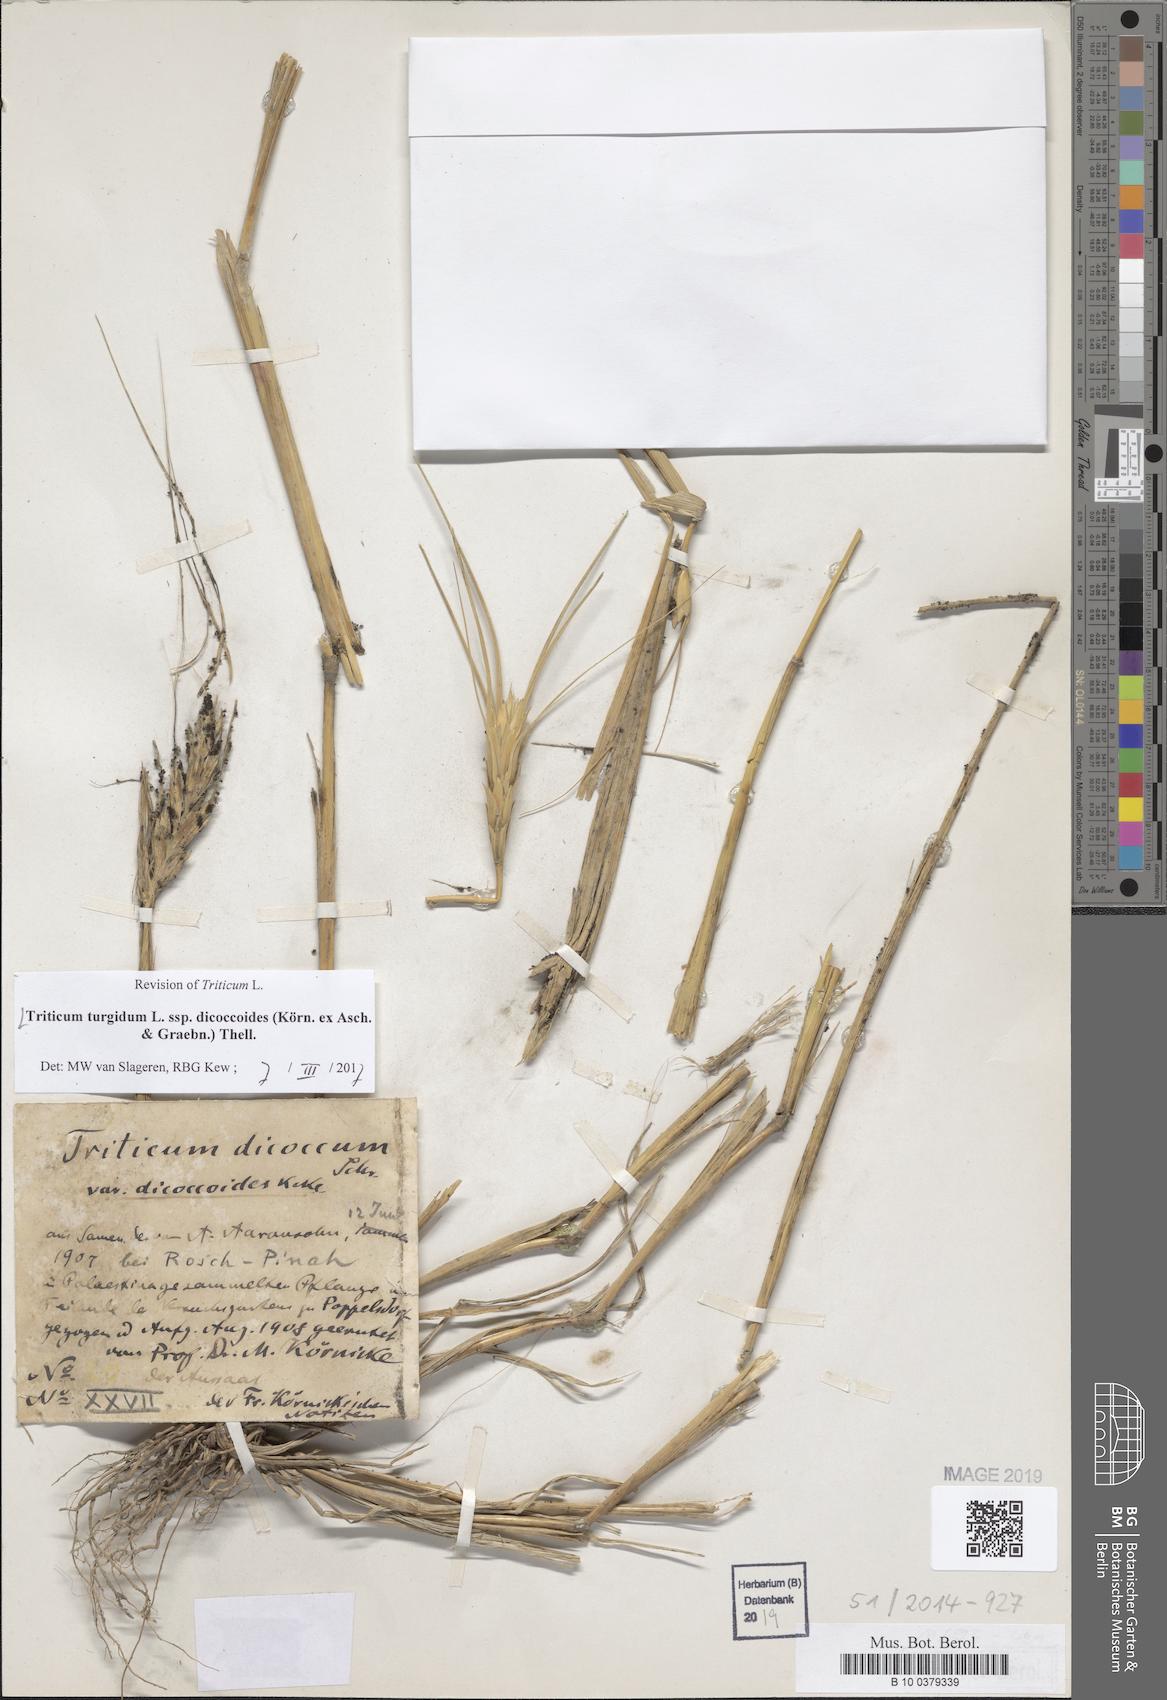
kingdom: Plantae
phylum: Tracheophyta
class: Liliopsida
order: Poales
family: Poaceae
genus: Triticum
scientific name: Triticum turgidum
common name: Rivet wheat
